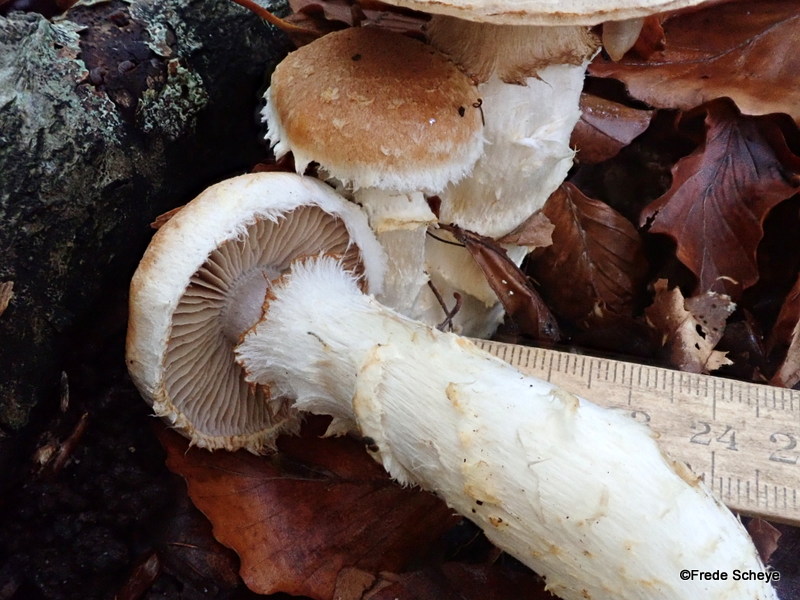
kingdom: Fungi
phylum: Basidiomycota
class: Agaricomycetes
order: Agaricales
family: Cortinariaceae
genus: Phlegmacium
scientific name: Phlegmacium vulpinum
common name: ringbæltet slørhat
